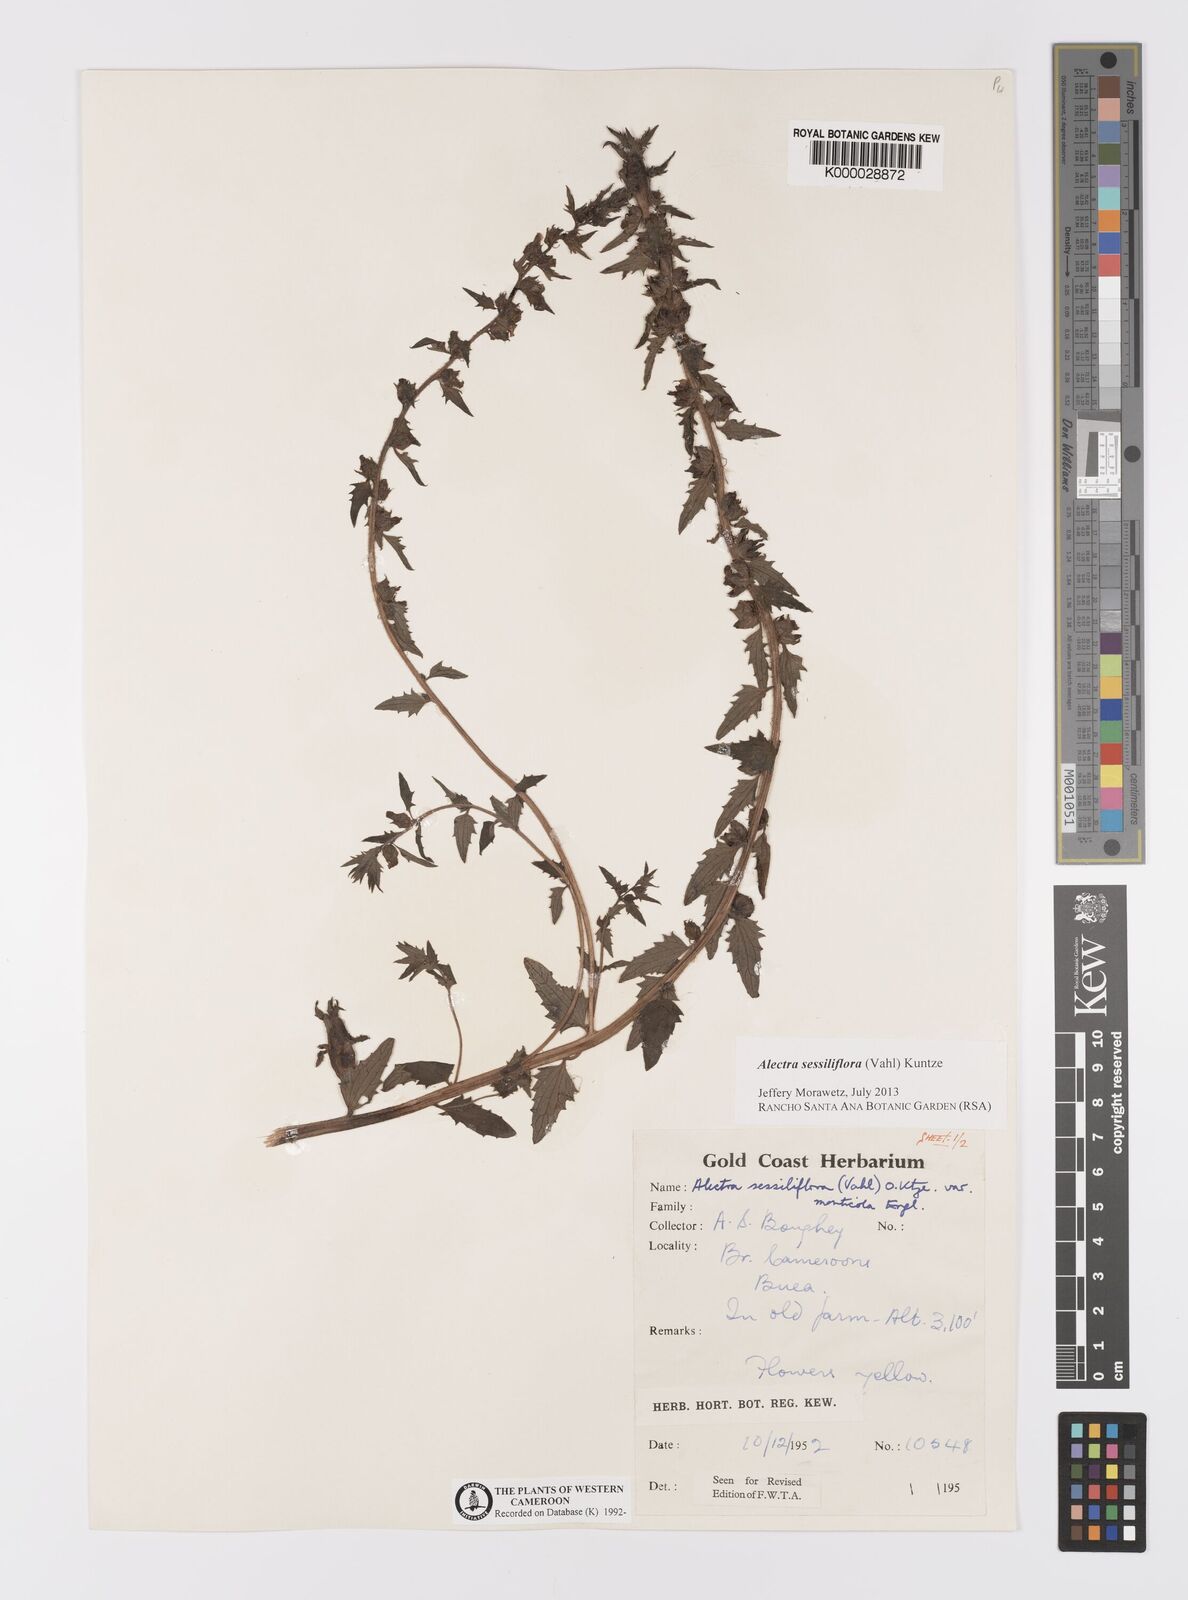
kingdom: Plantae
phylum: Tracheophyta
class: Magnoliopsida
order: Lamiales
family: Orobanchaceae
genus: Alectra
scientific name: Alectra sessiliflora
